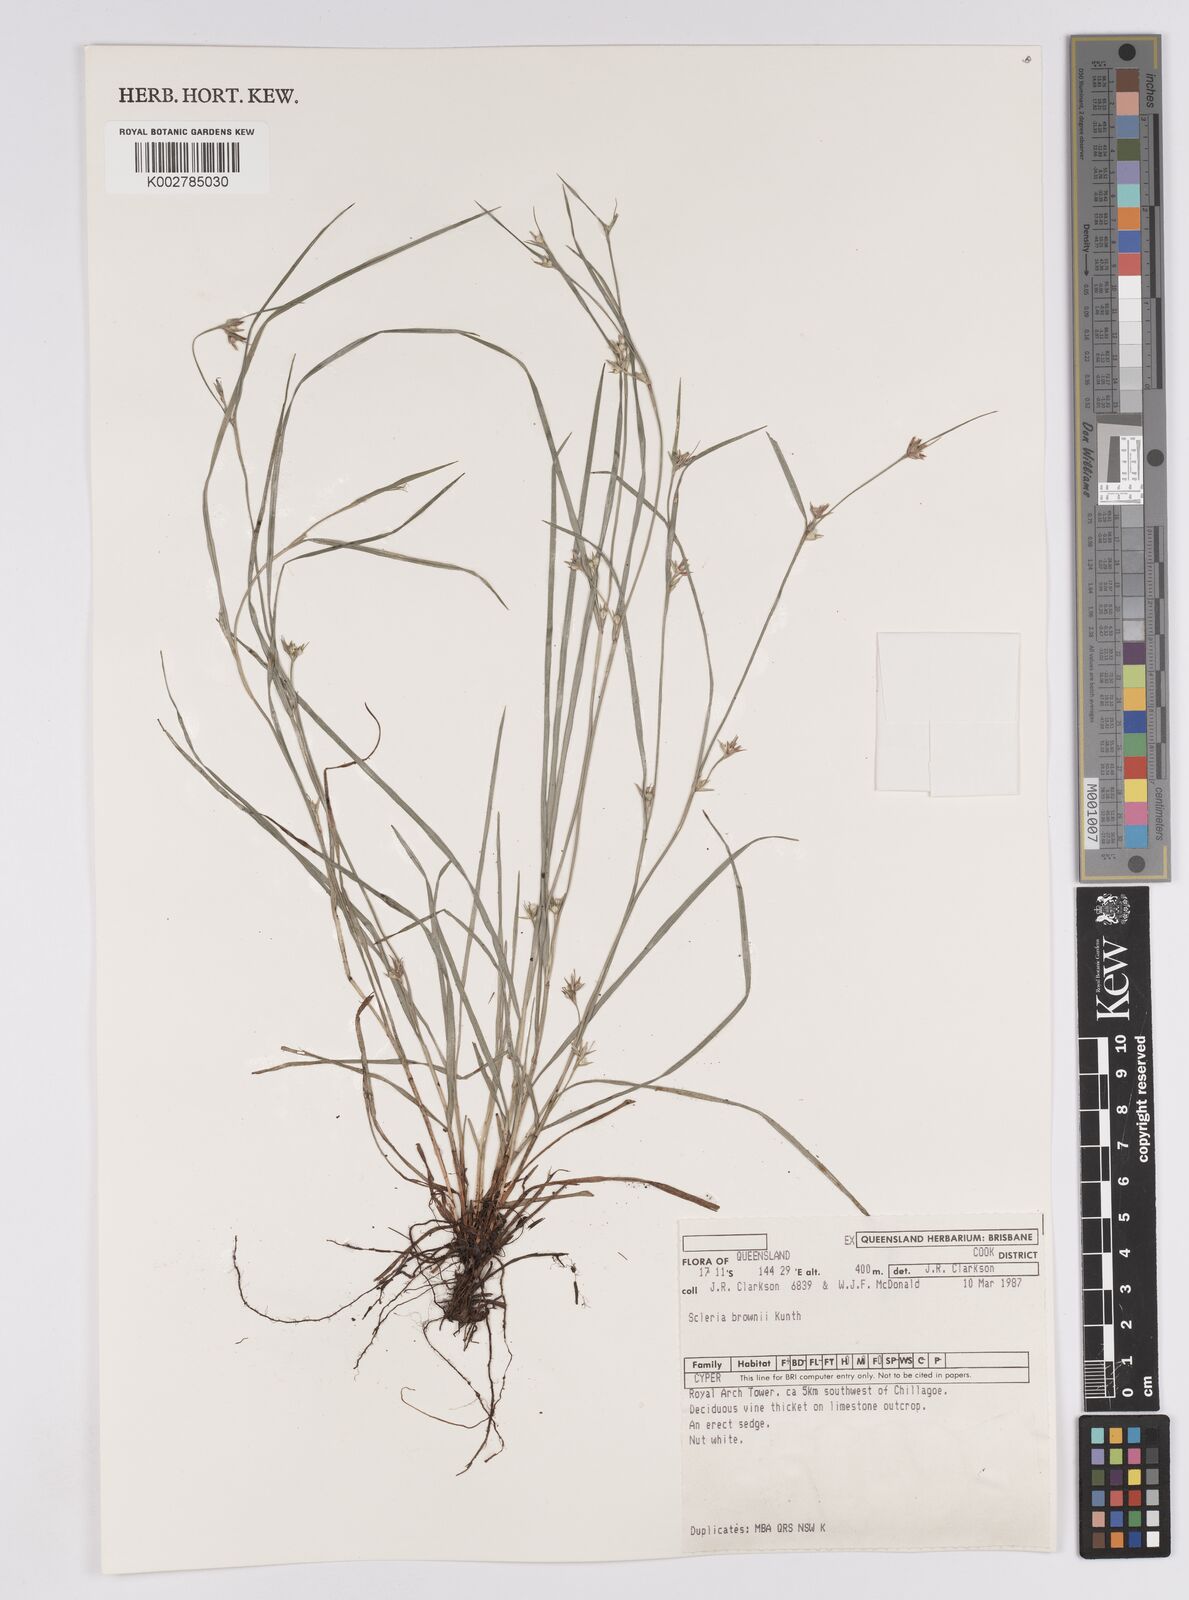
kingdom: Plantae
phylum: Tracheophyta
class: Liliopsida
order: Poales
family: Cyperaceae
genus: Scleria
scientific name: Scleria brownii
